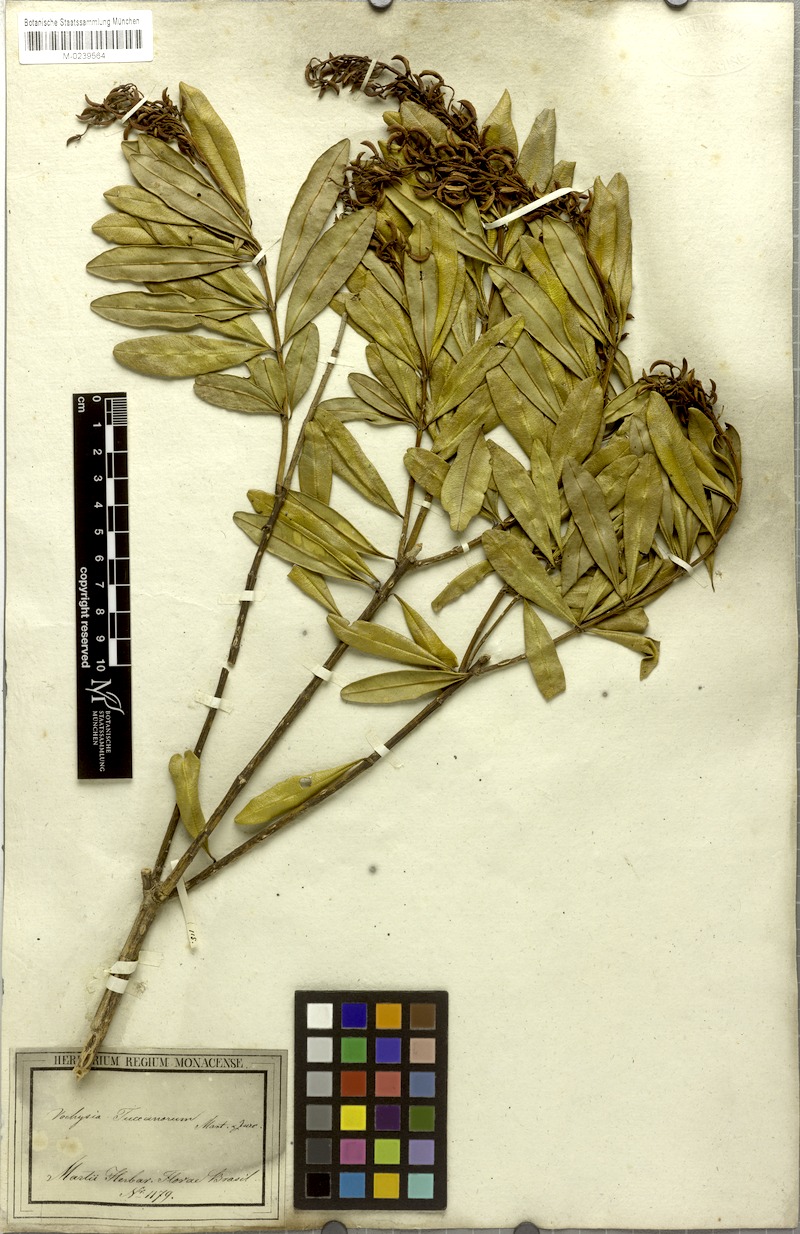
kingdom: Plantae
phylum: Tracheophyta
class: Magnoliopsida
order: Myrtales
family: Vochysiaceae
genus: Vochysia
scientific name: Vochysia tucanorum
